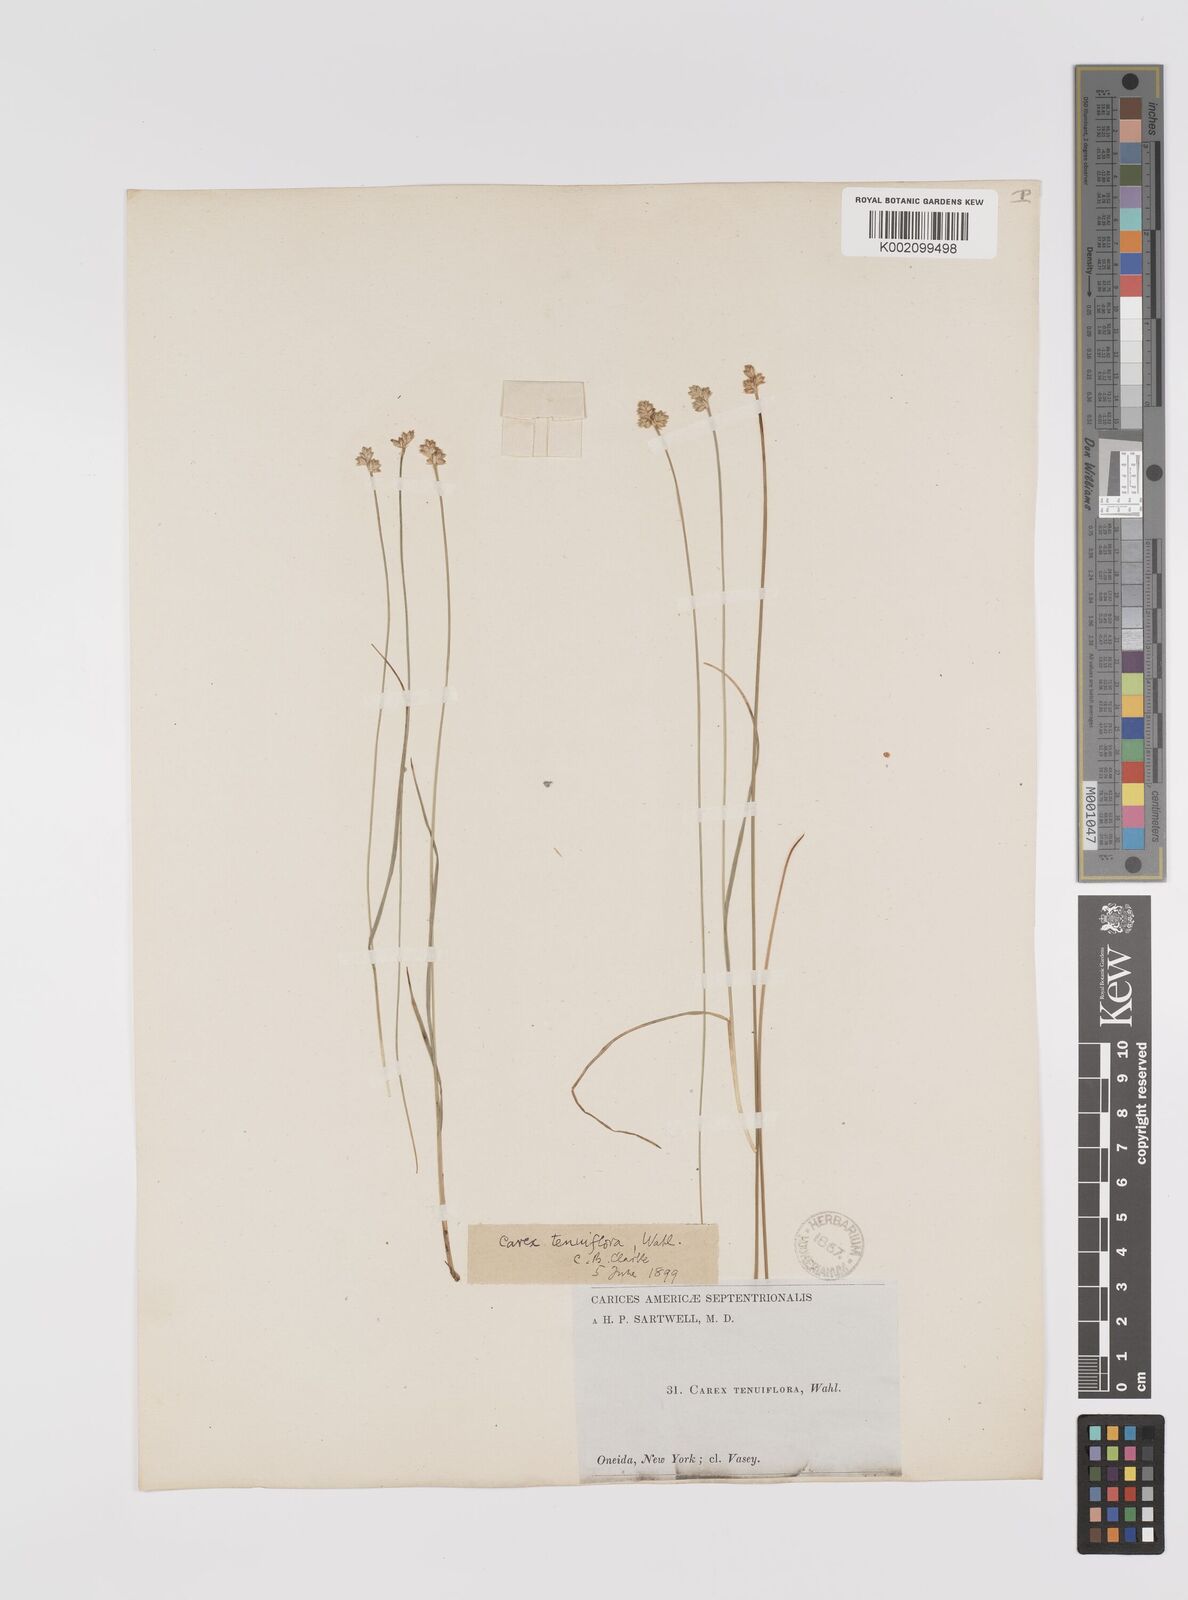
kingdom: Plantae
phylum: Tracheophyta
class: Liliopsida
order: Poales
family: Cyperaceae
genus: Carex
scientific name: Carex tenuiflora
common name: Sparse-flowered sedge
